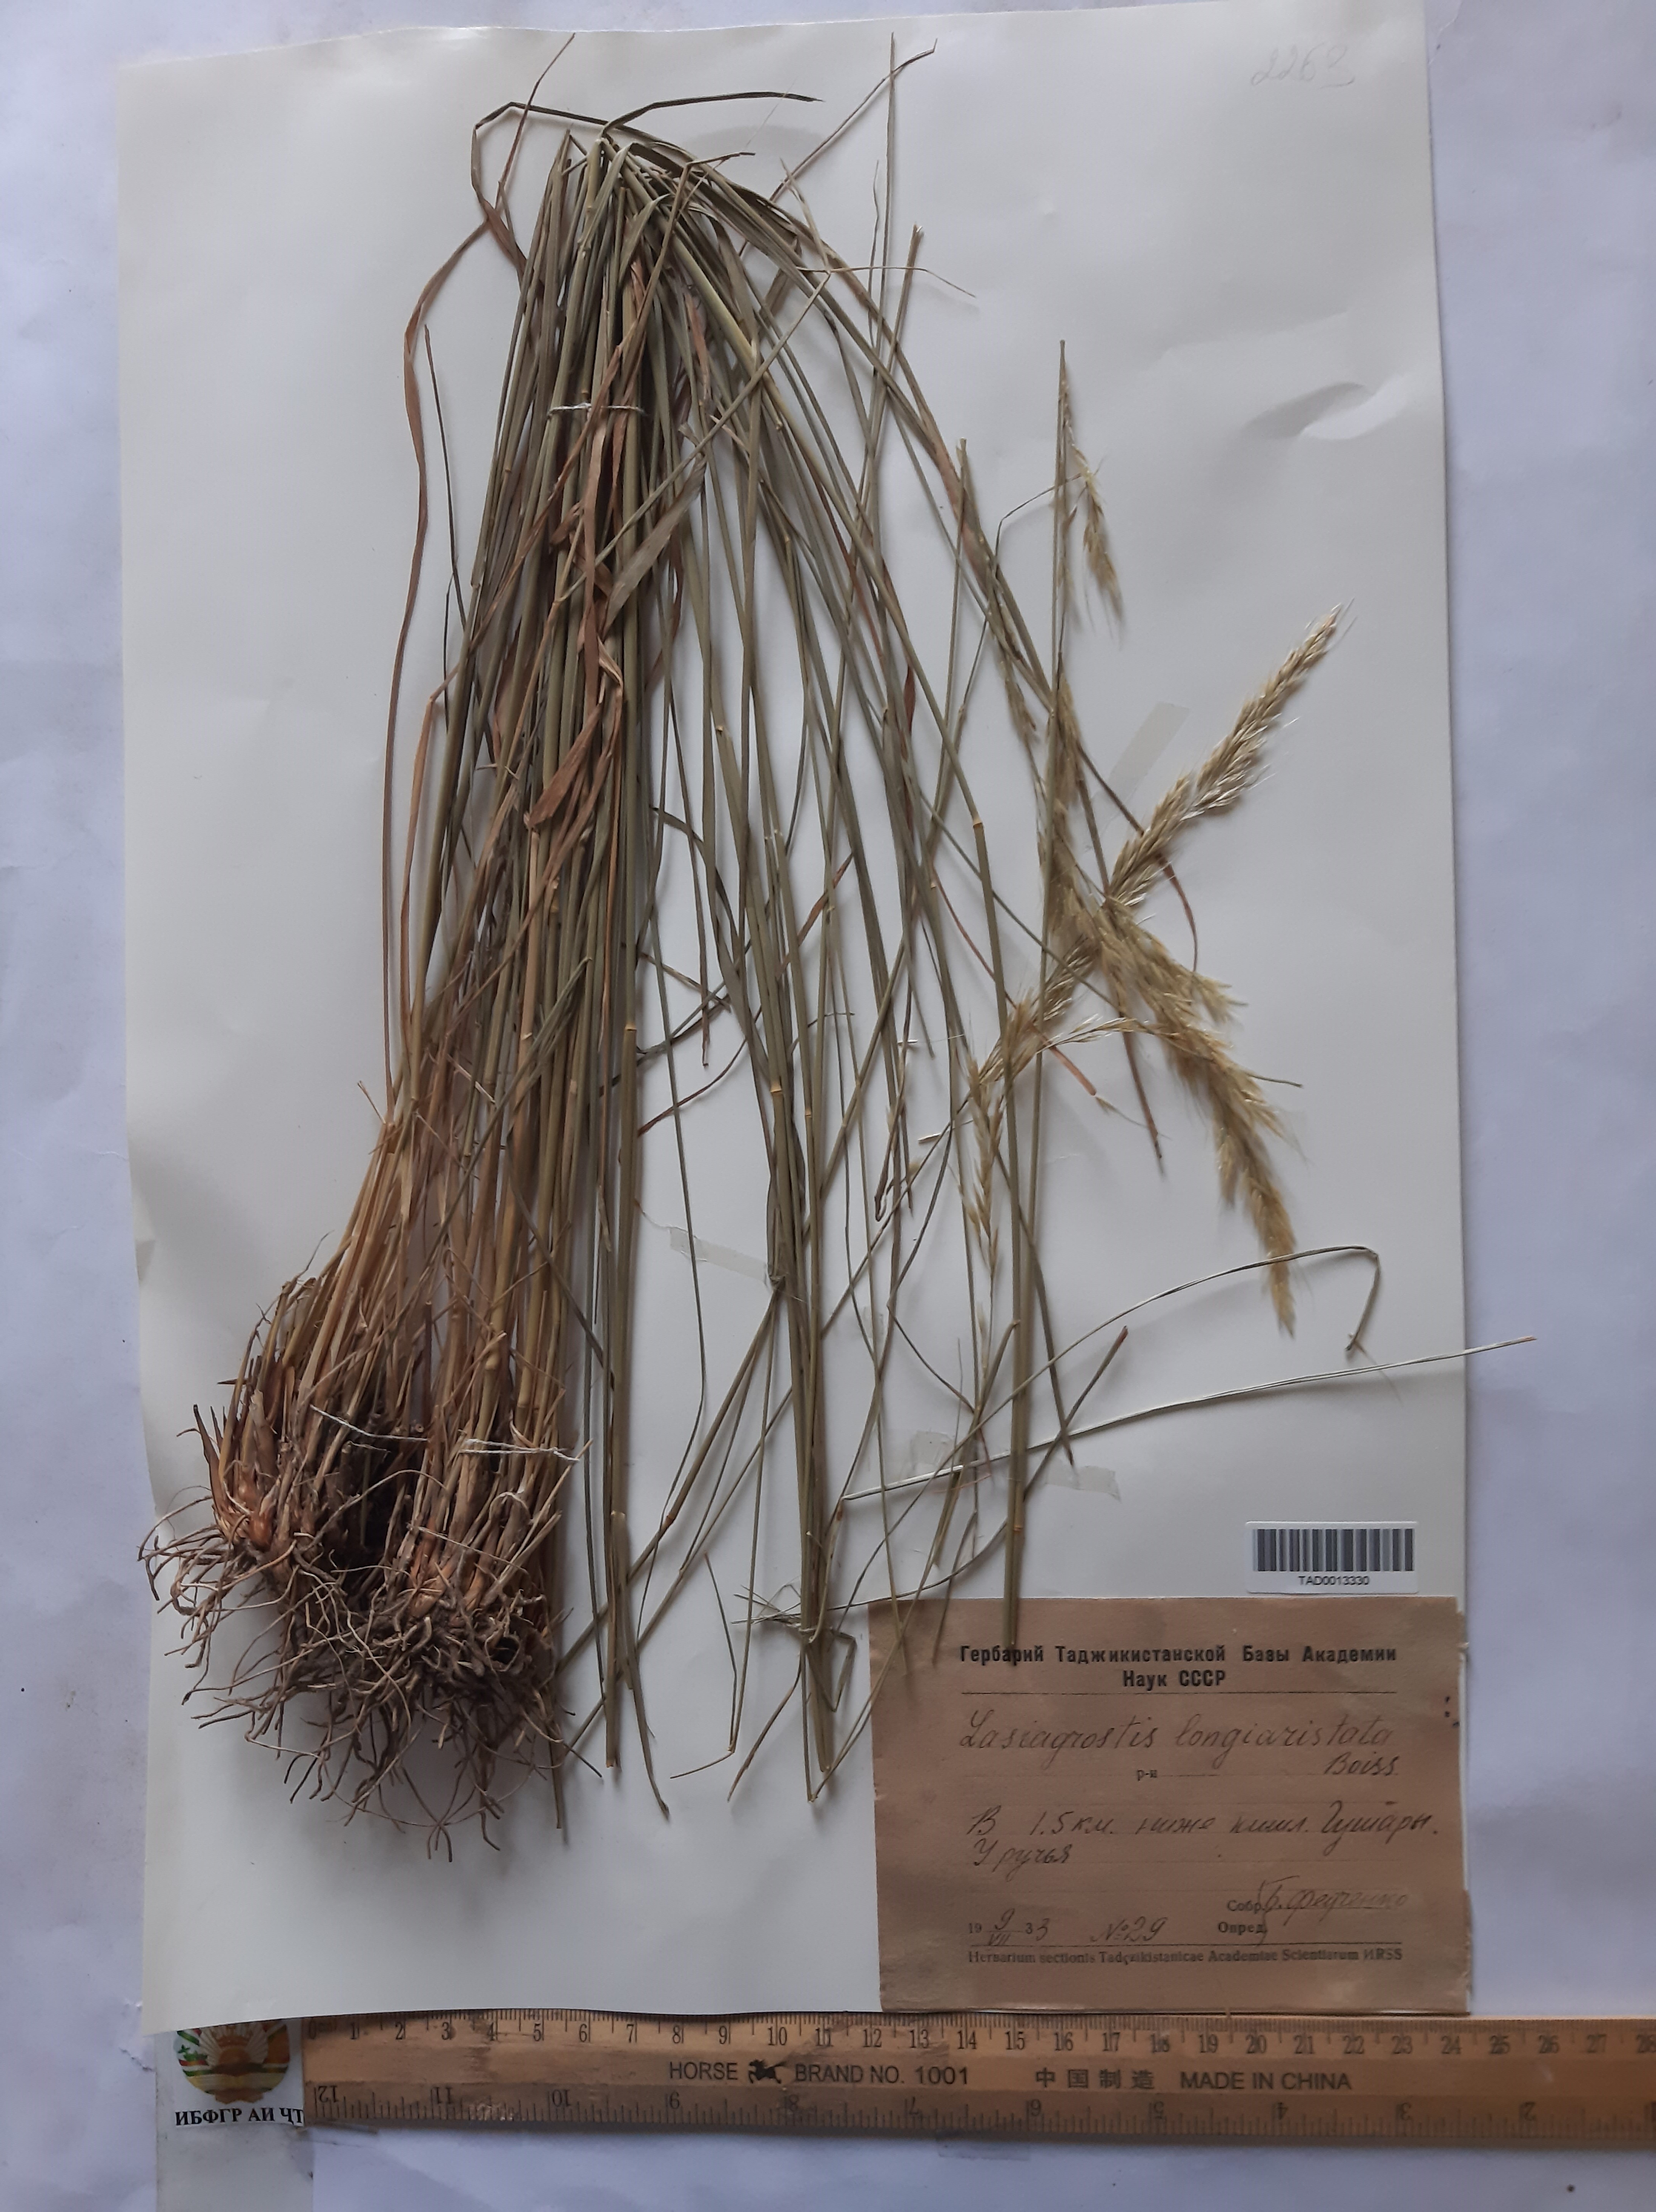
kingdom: Plantae
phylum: Tracheophyta
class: Liliopsida
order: Poales
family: Poaceae
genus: Achnatherum
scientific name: Achnatherum turcomanicum
